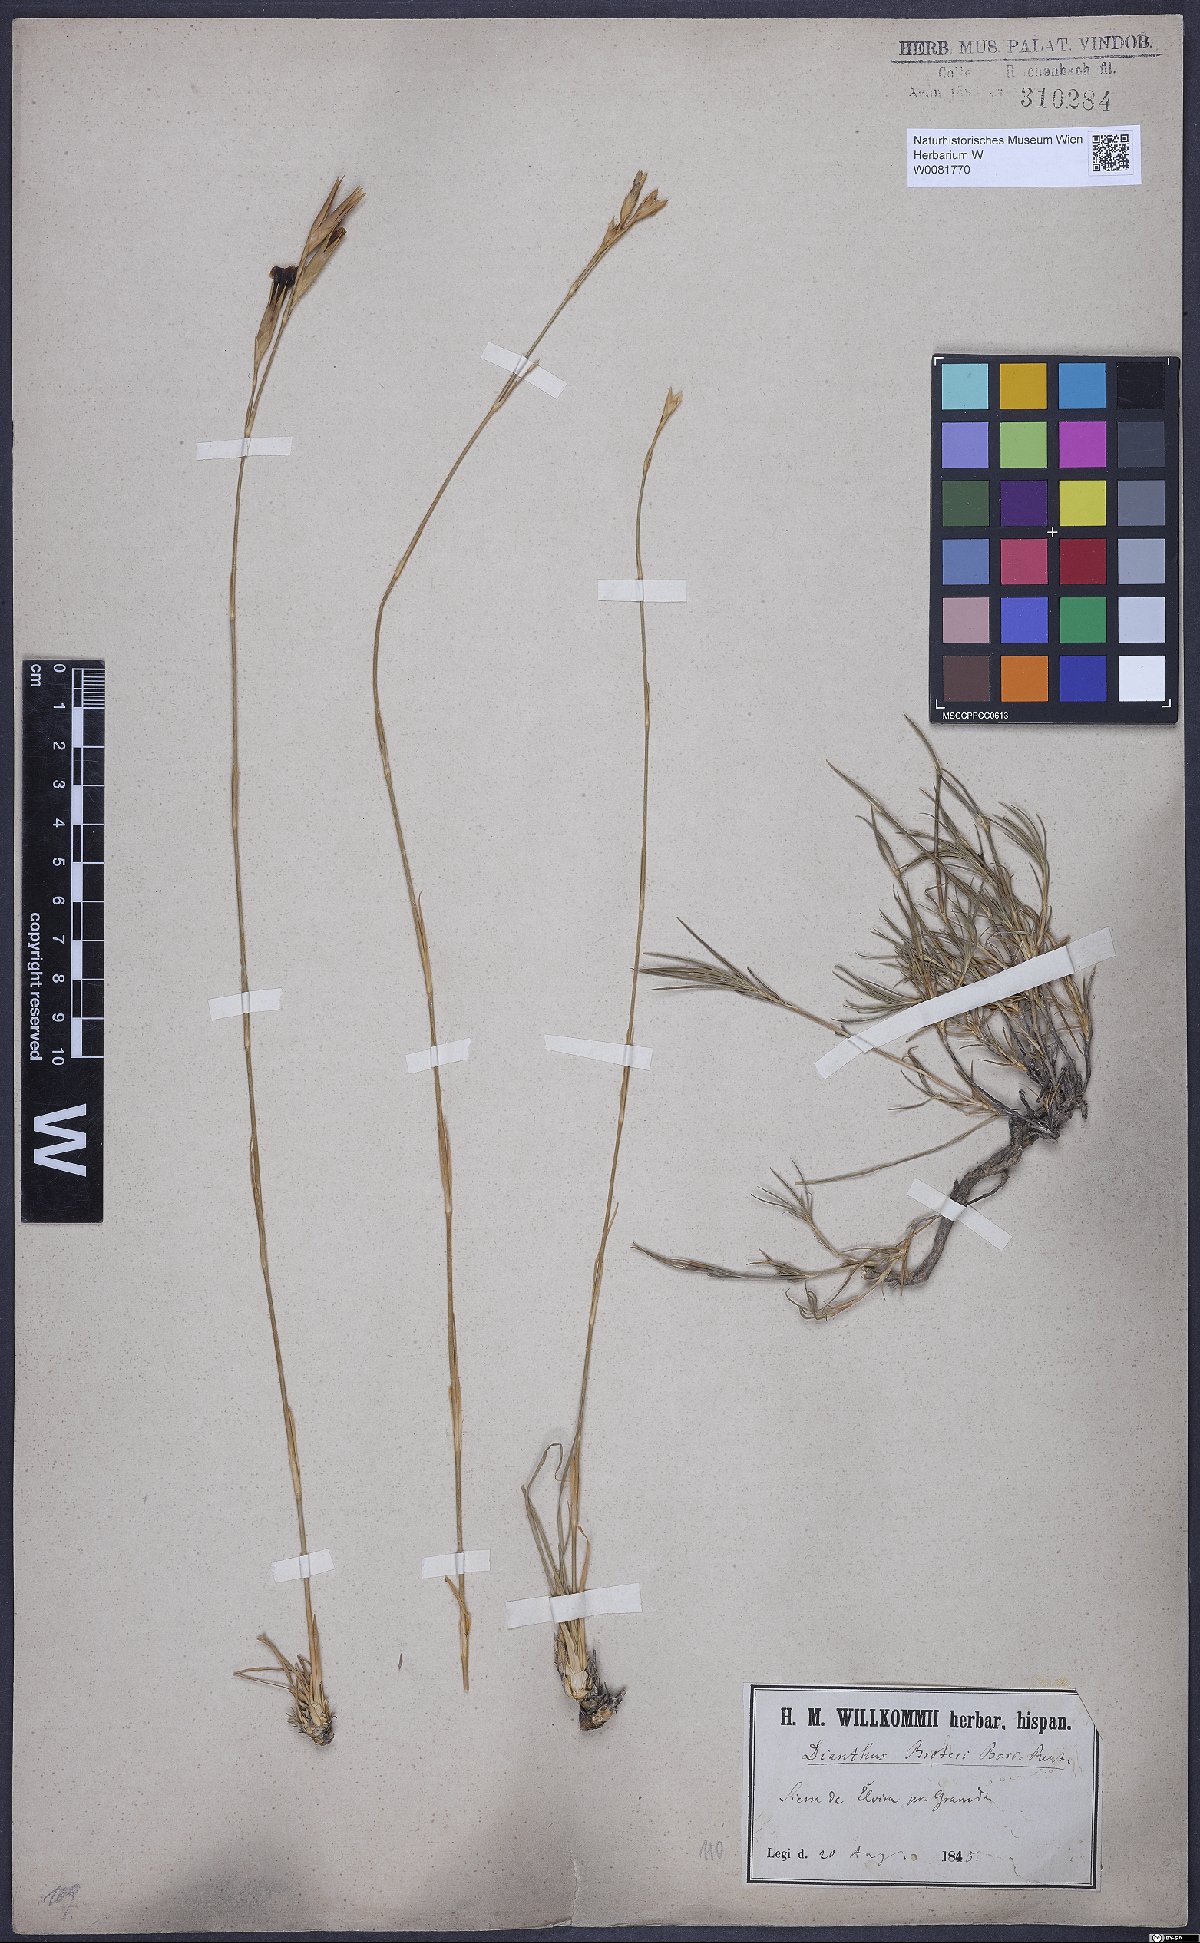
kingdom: Plantae
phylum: Tracheophyta
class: Magnoliopsida
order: Caryophyllales
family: Caryophyllaceae
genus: Dianthus
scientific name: Dianthus broteri
